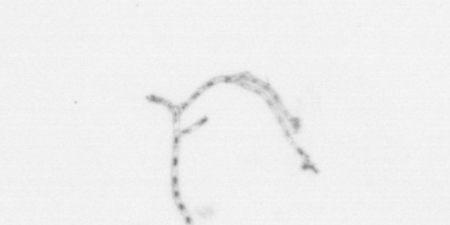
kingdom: Animalia
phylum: Cnidaria
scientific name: Cnidaria
